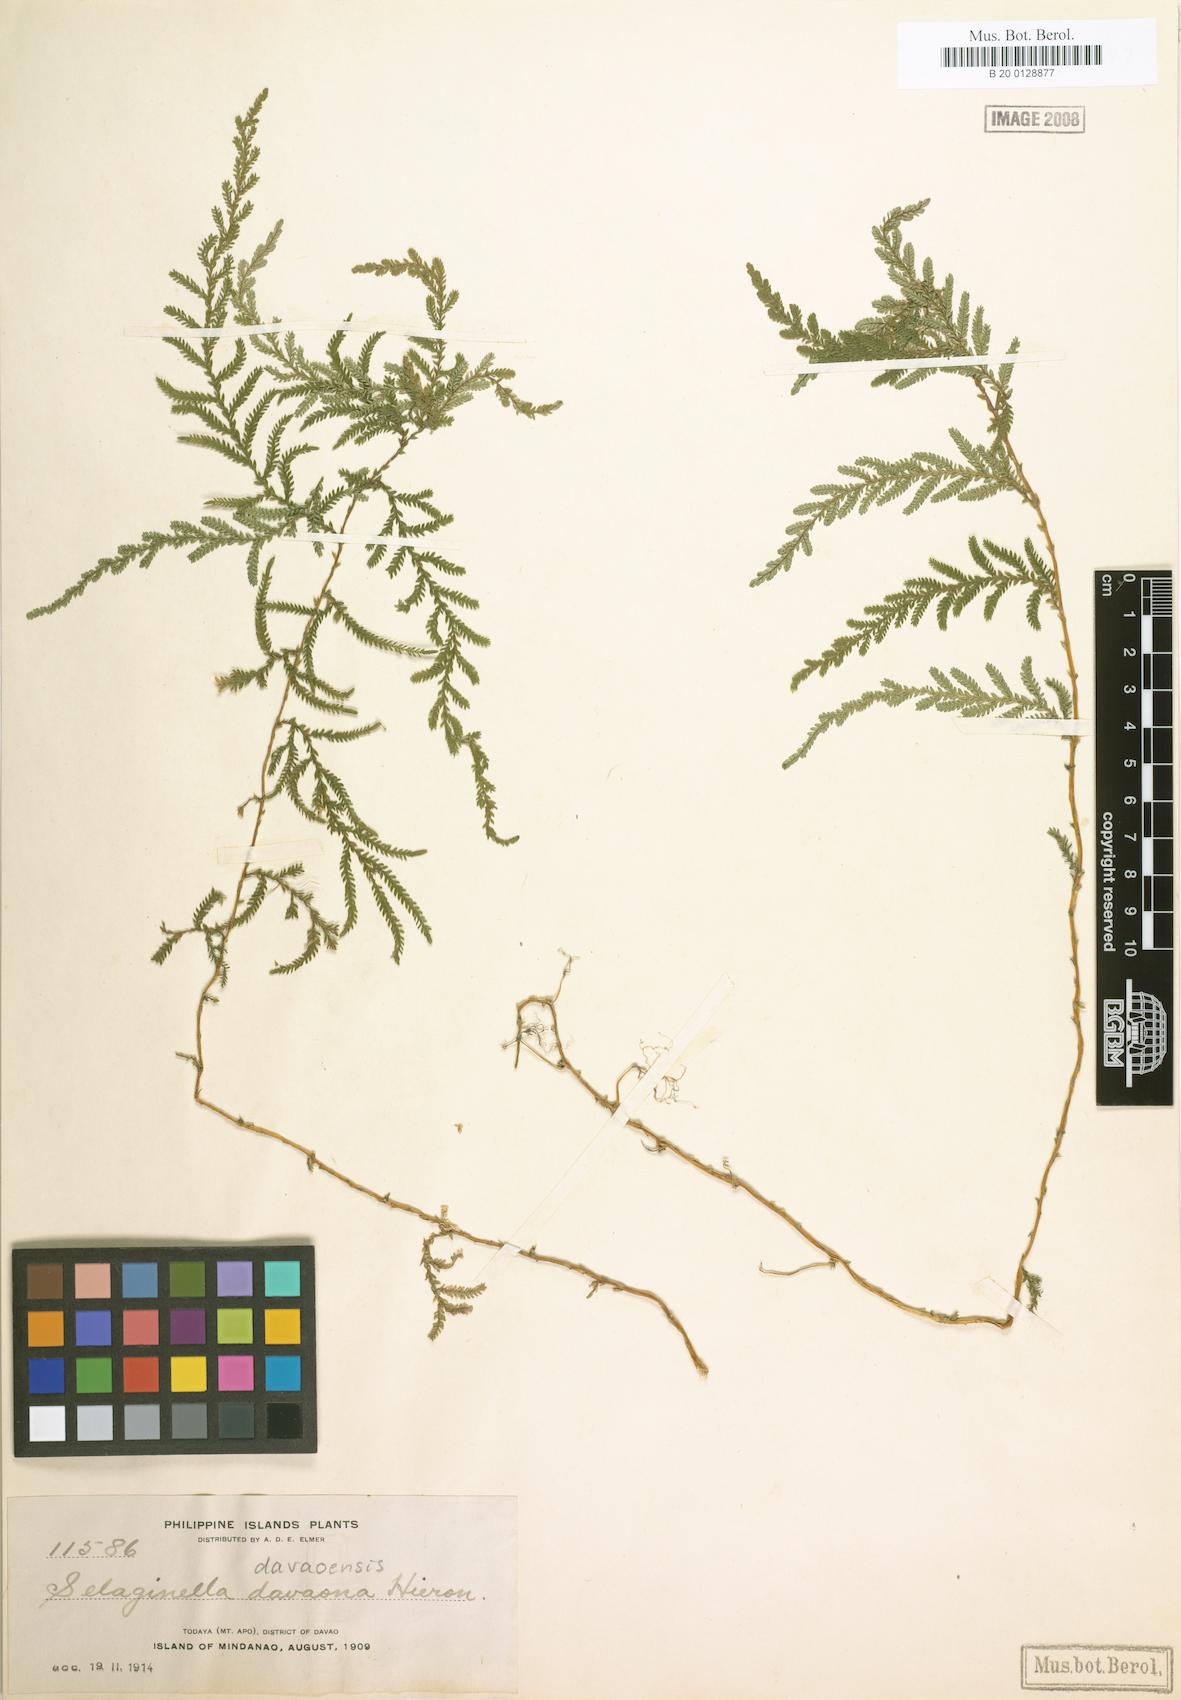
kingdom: Plantae
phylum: Tracheophyta
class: Lycopodiopsida
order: Selaginellales
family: Selaginellaceae
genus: Selaginella
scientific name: Selaginella delicatula
